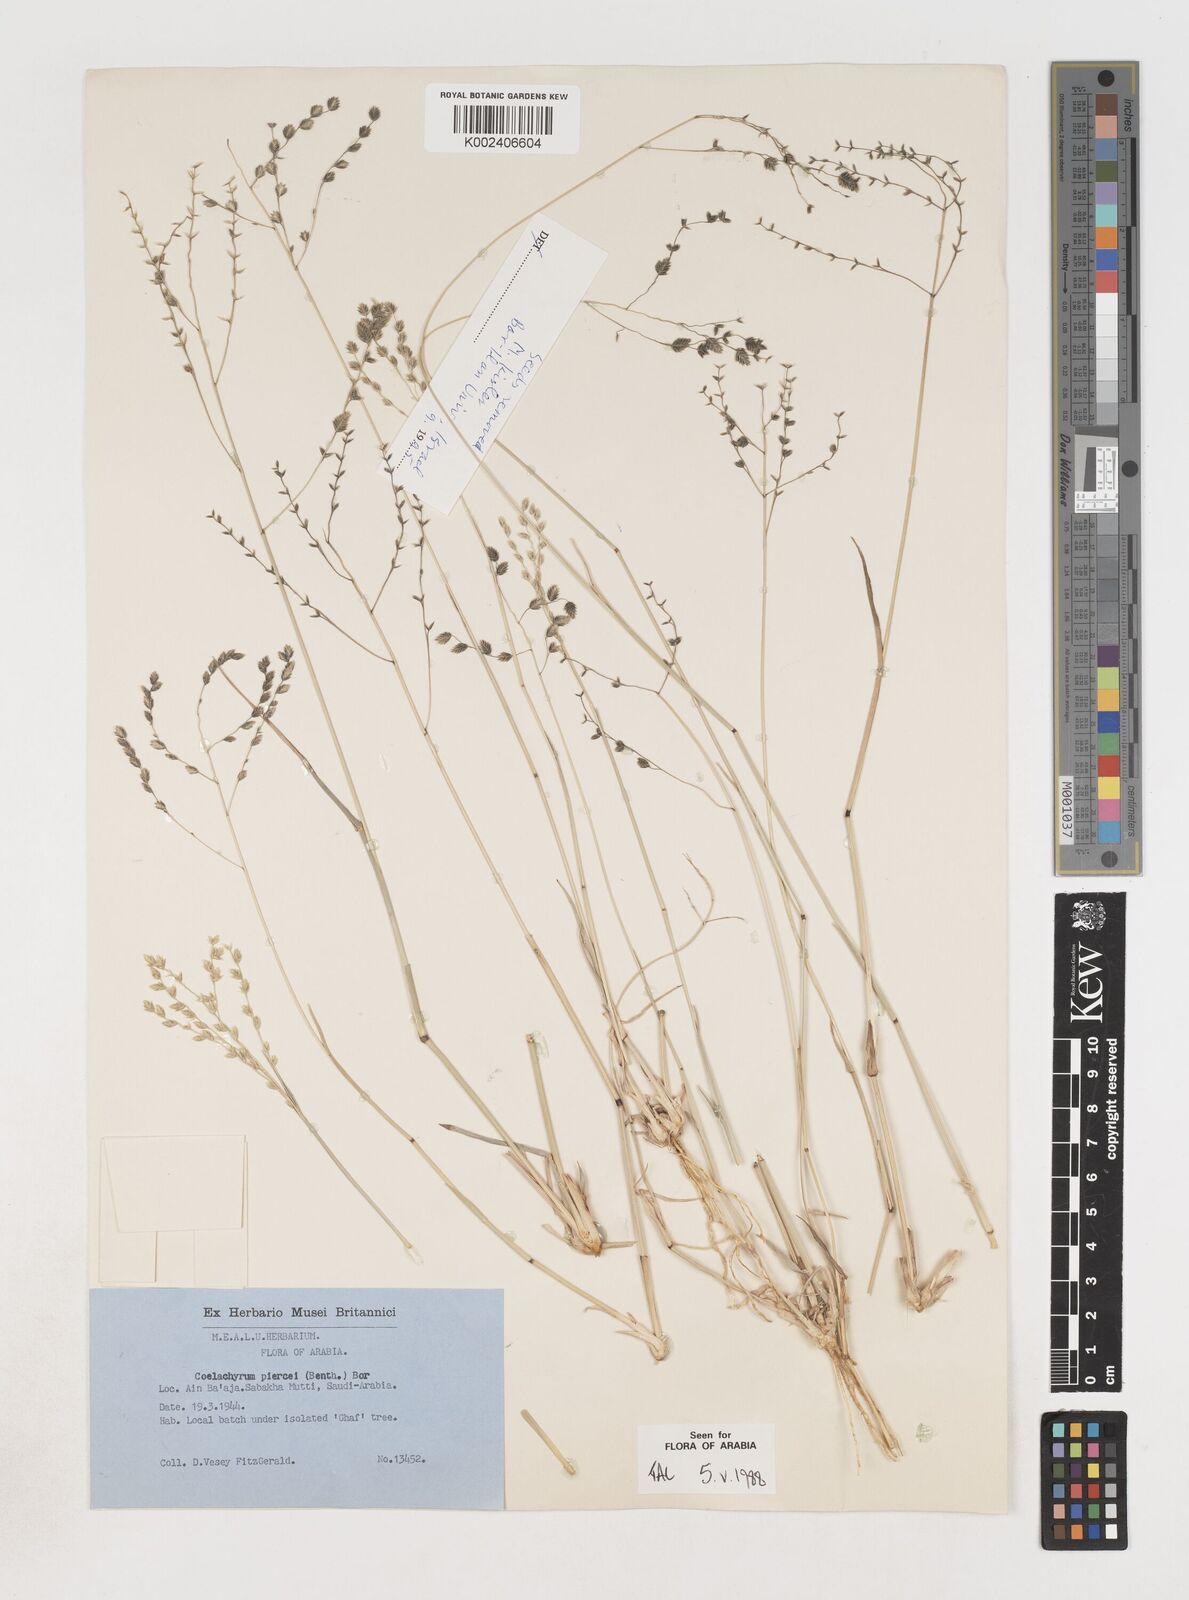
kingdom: Plantae
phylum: Tracheophyta
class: Liliopsida
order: Poales
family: Poaceae
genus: Coelachyrum
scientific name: Coelachyrum piercei
